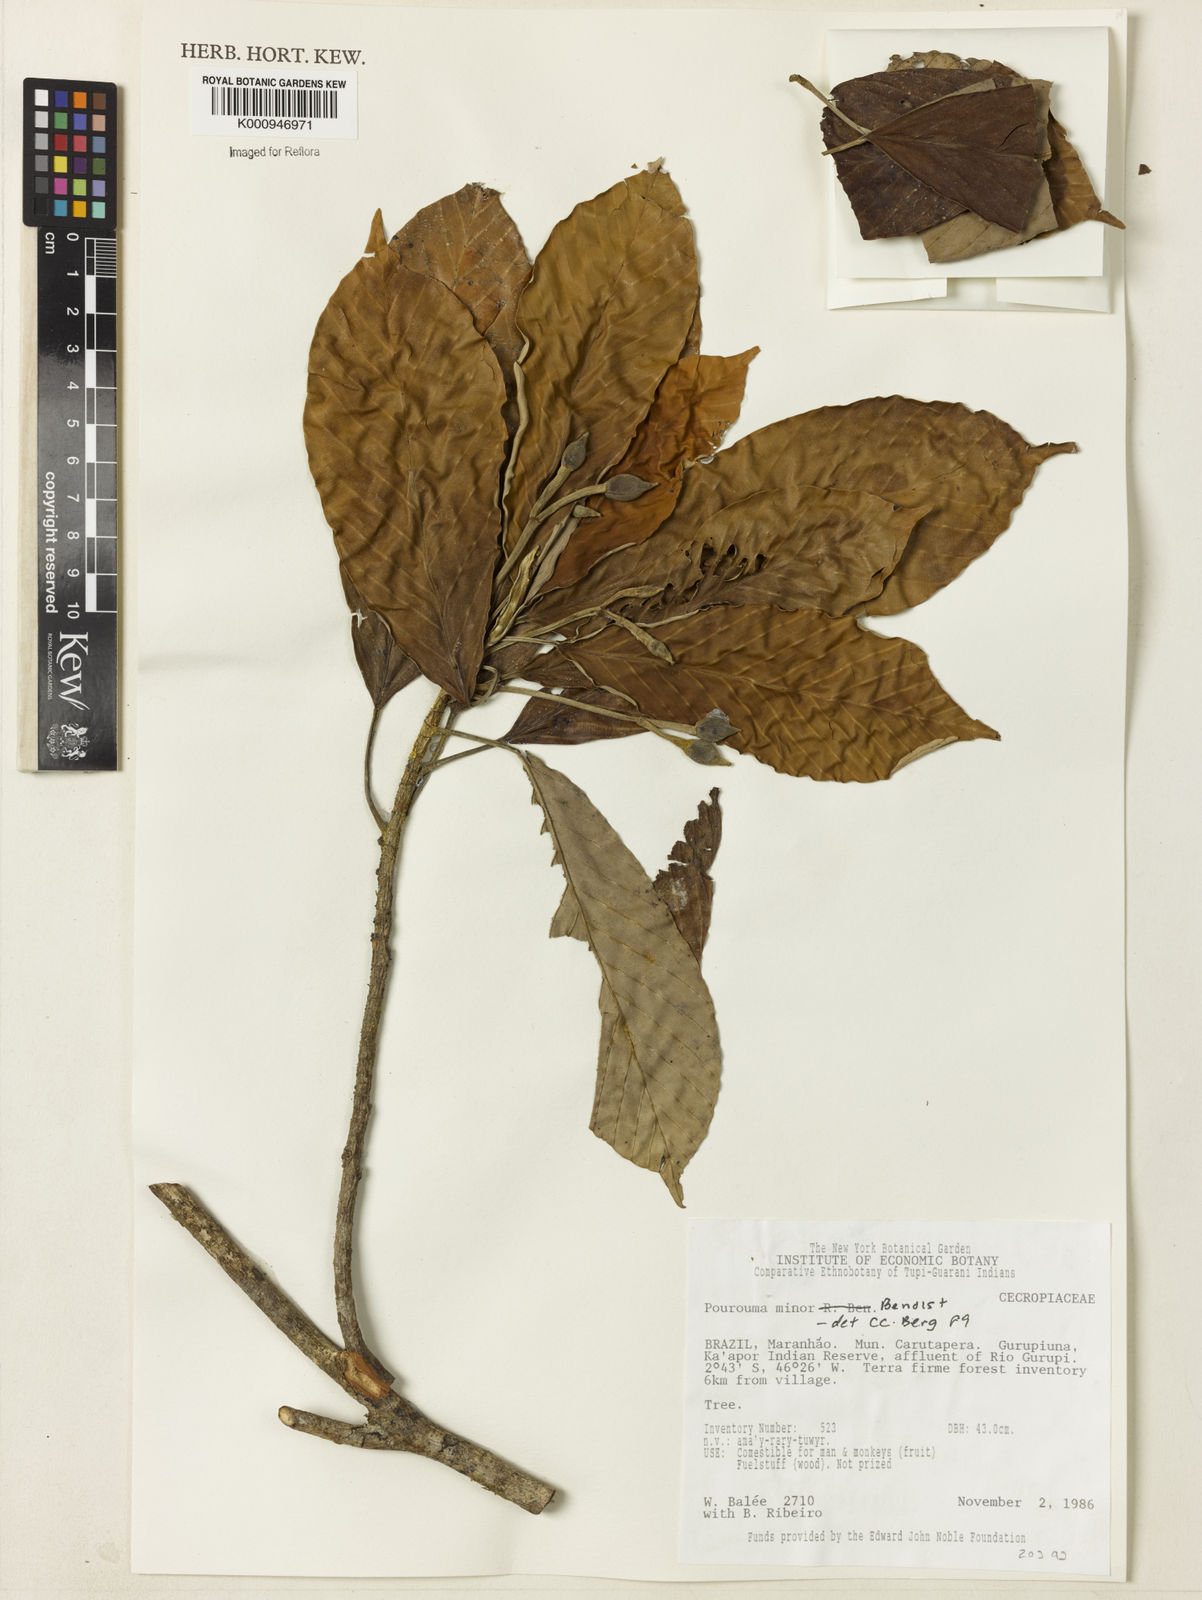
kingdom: Plantae
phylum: Tracheophyta
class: Magnoliopsida
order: Rosales
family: Urticaceae
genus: Pourouma
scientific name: Pourouma minor
